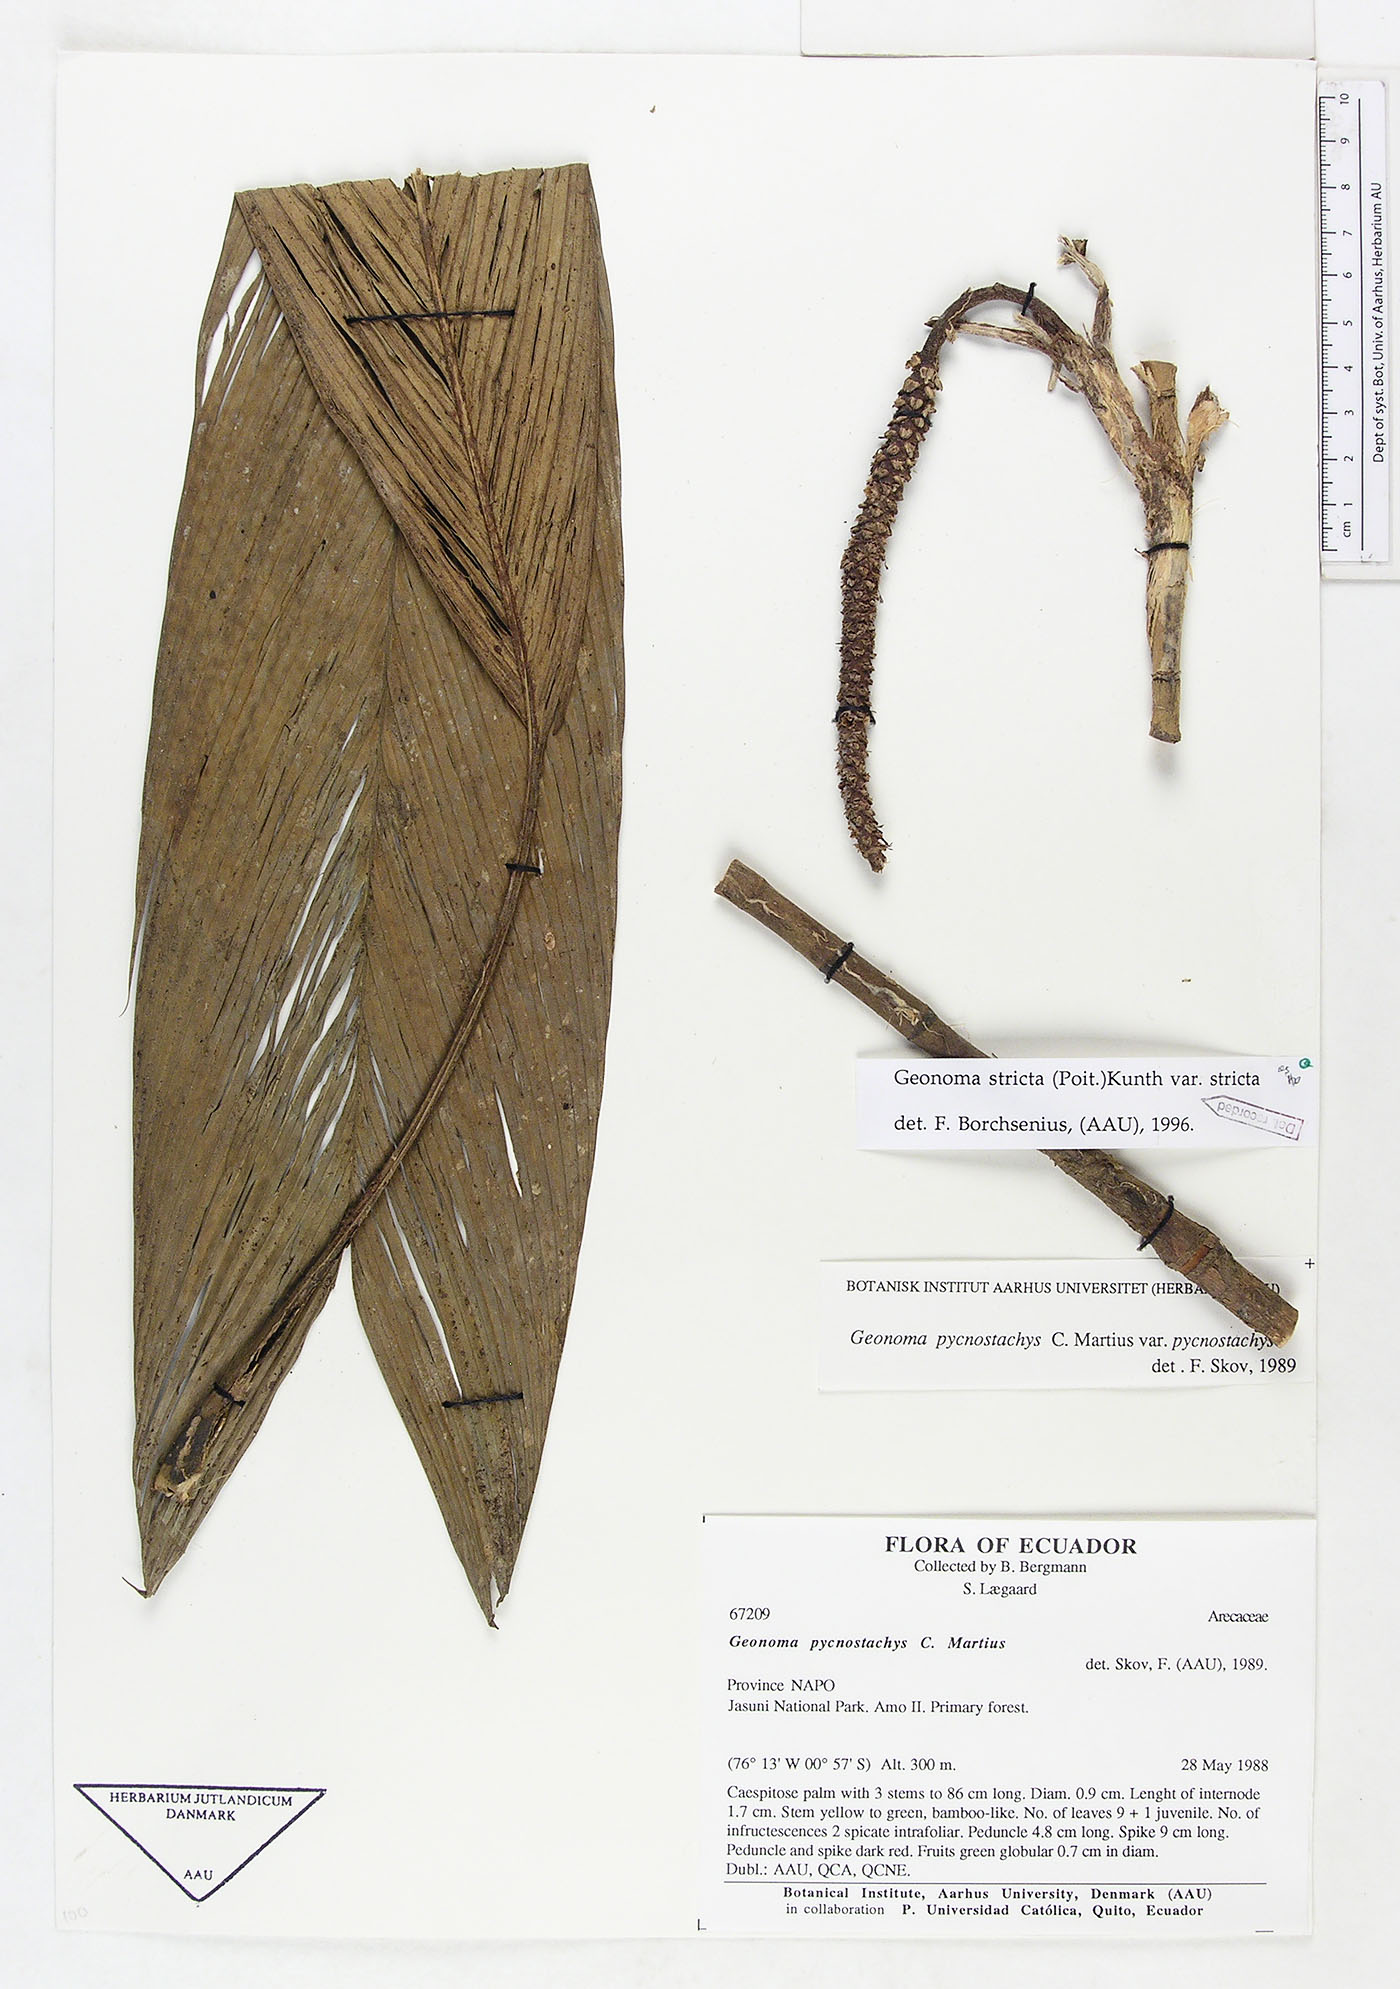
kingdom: Plantae
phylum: Tracheophyta
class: Liliopsida
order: Arecales
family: Arecaceae
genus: Geonoma
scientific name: Geonoma stricta
